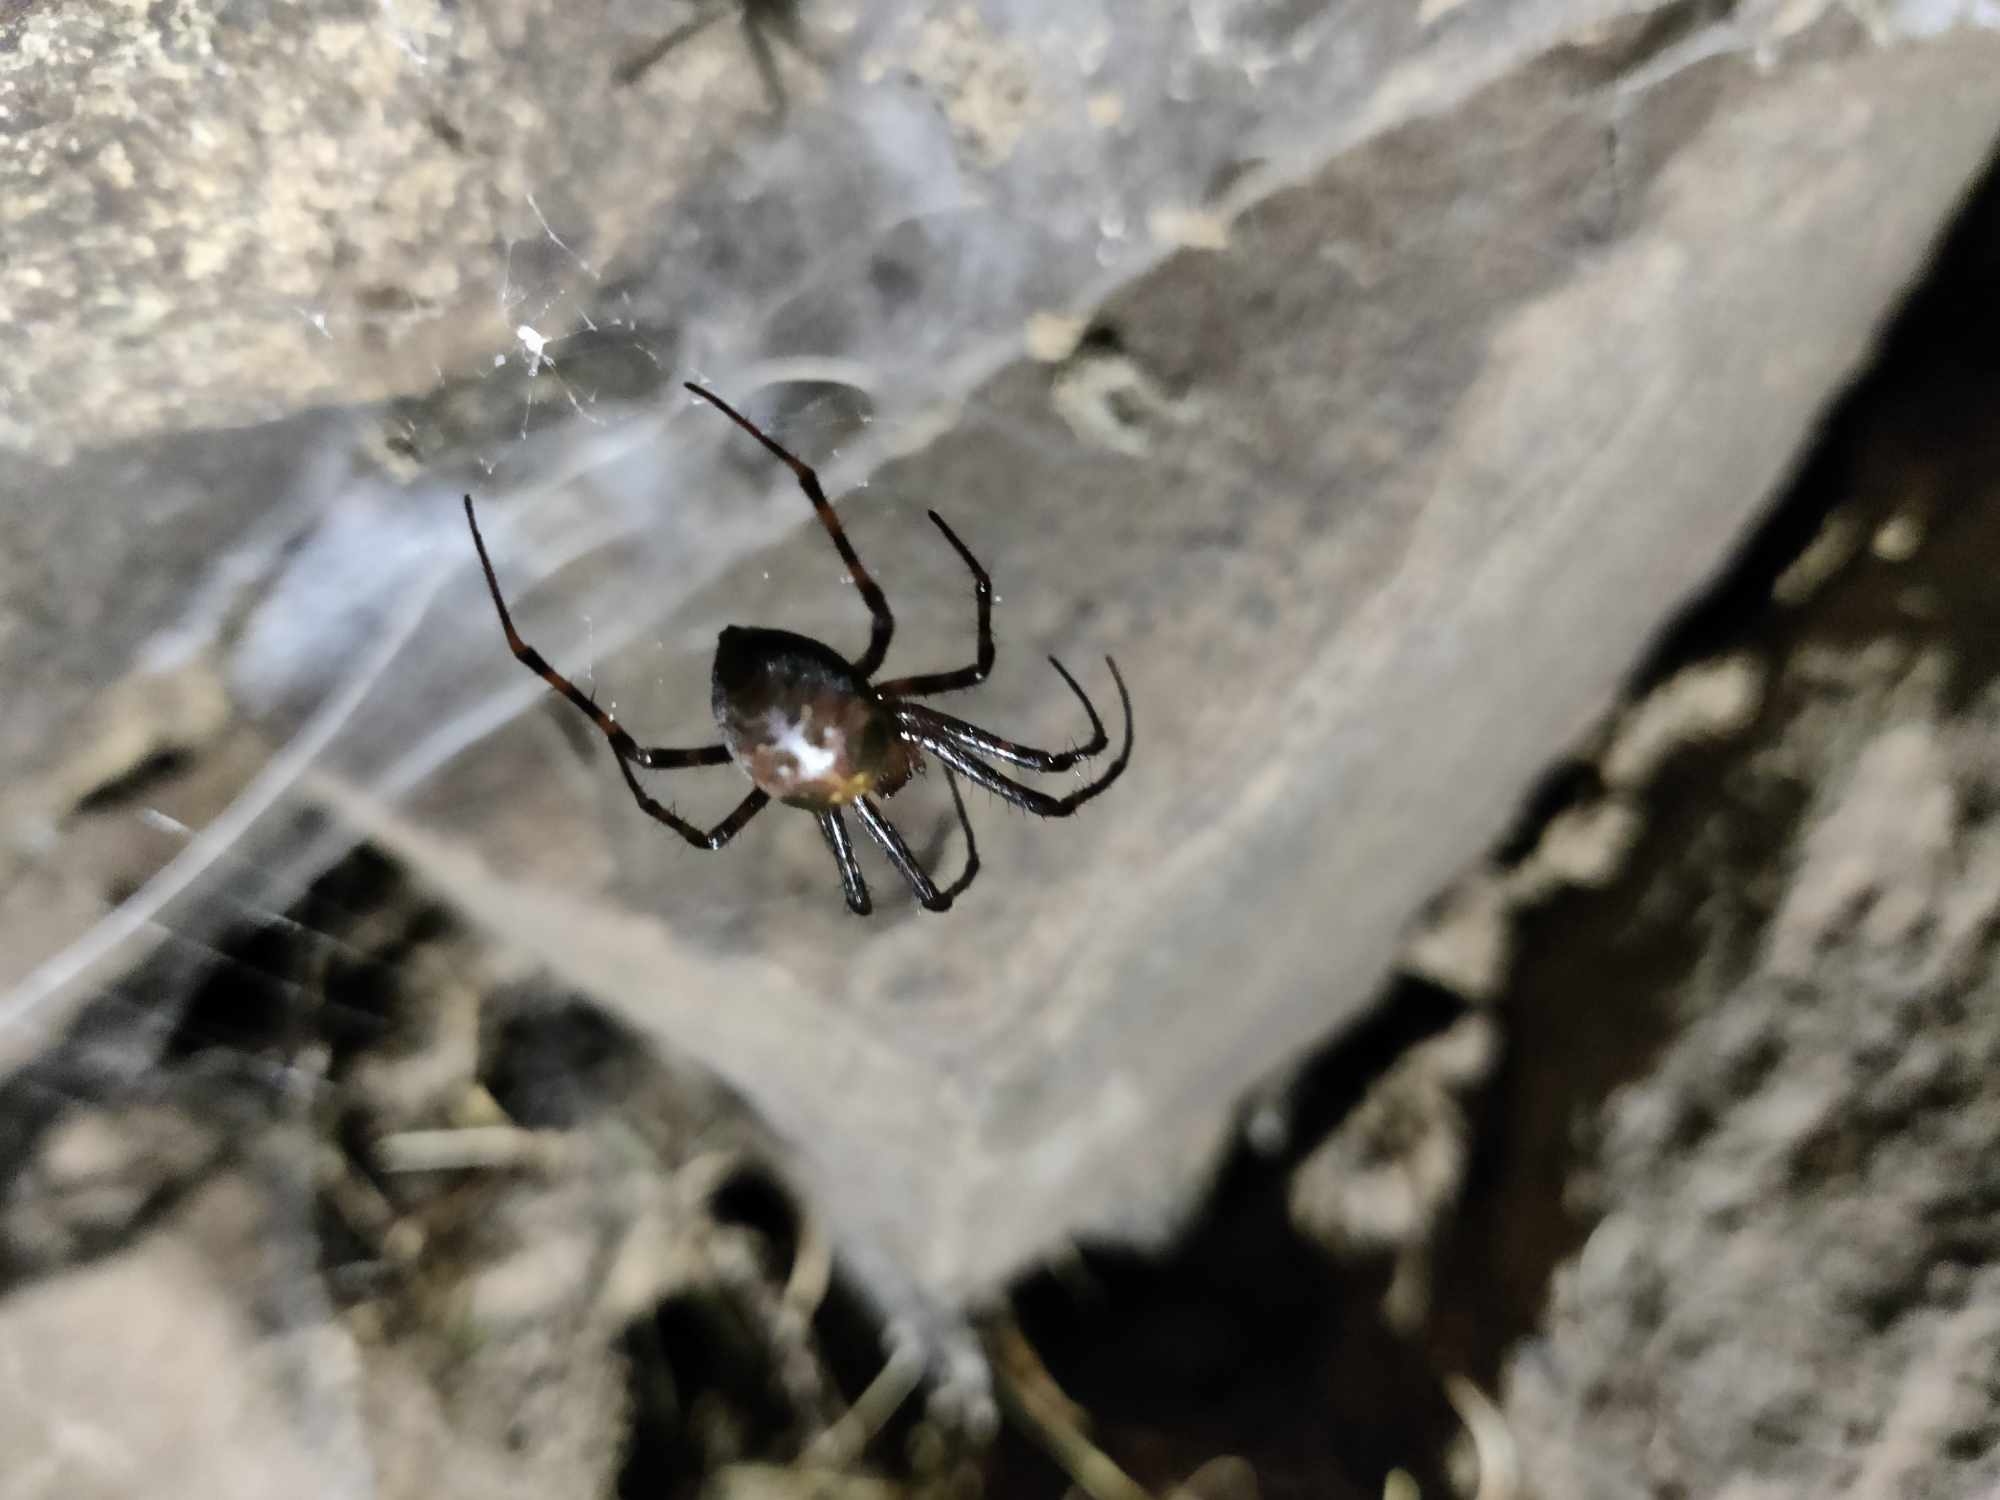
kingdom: Animalia
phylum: Arthropoda
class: Arachnida
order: Araneae
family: Tetragnathidae
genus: Meta
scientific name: Meta menardi
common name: Grotteedderkop
